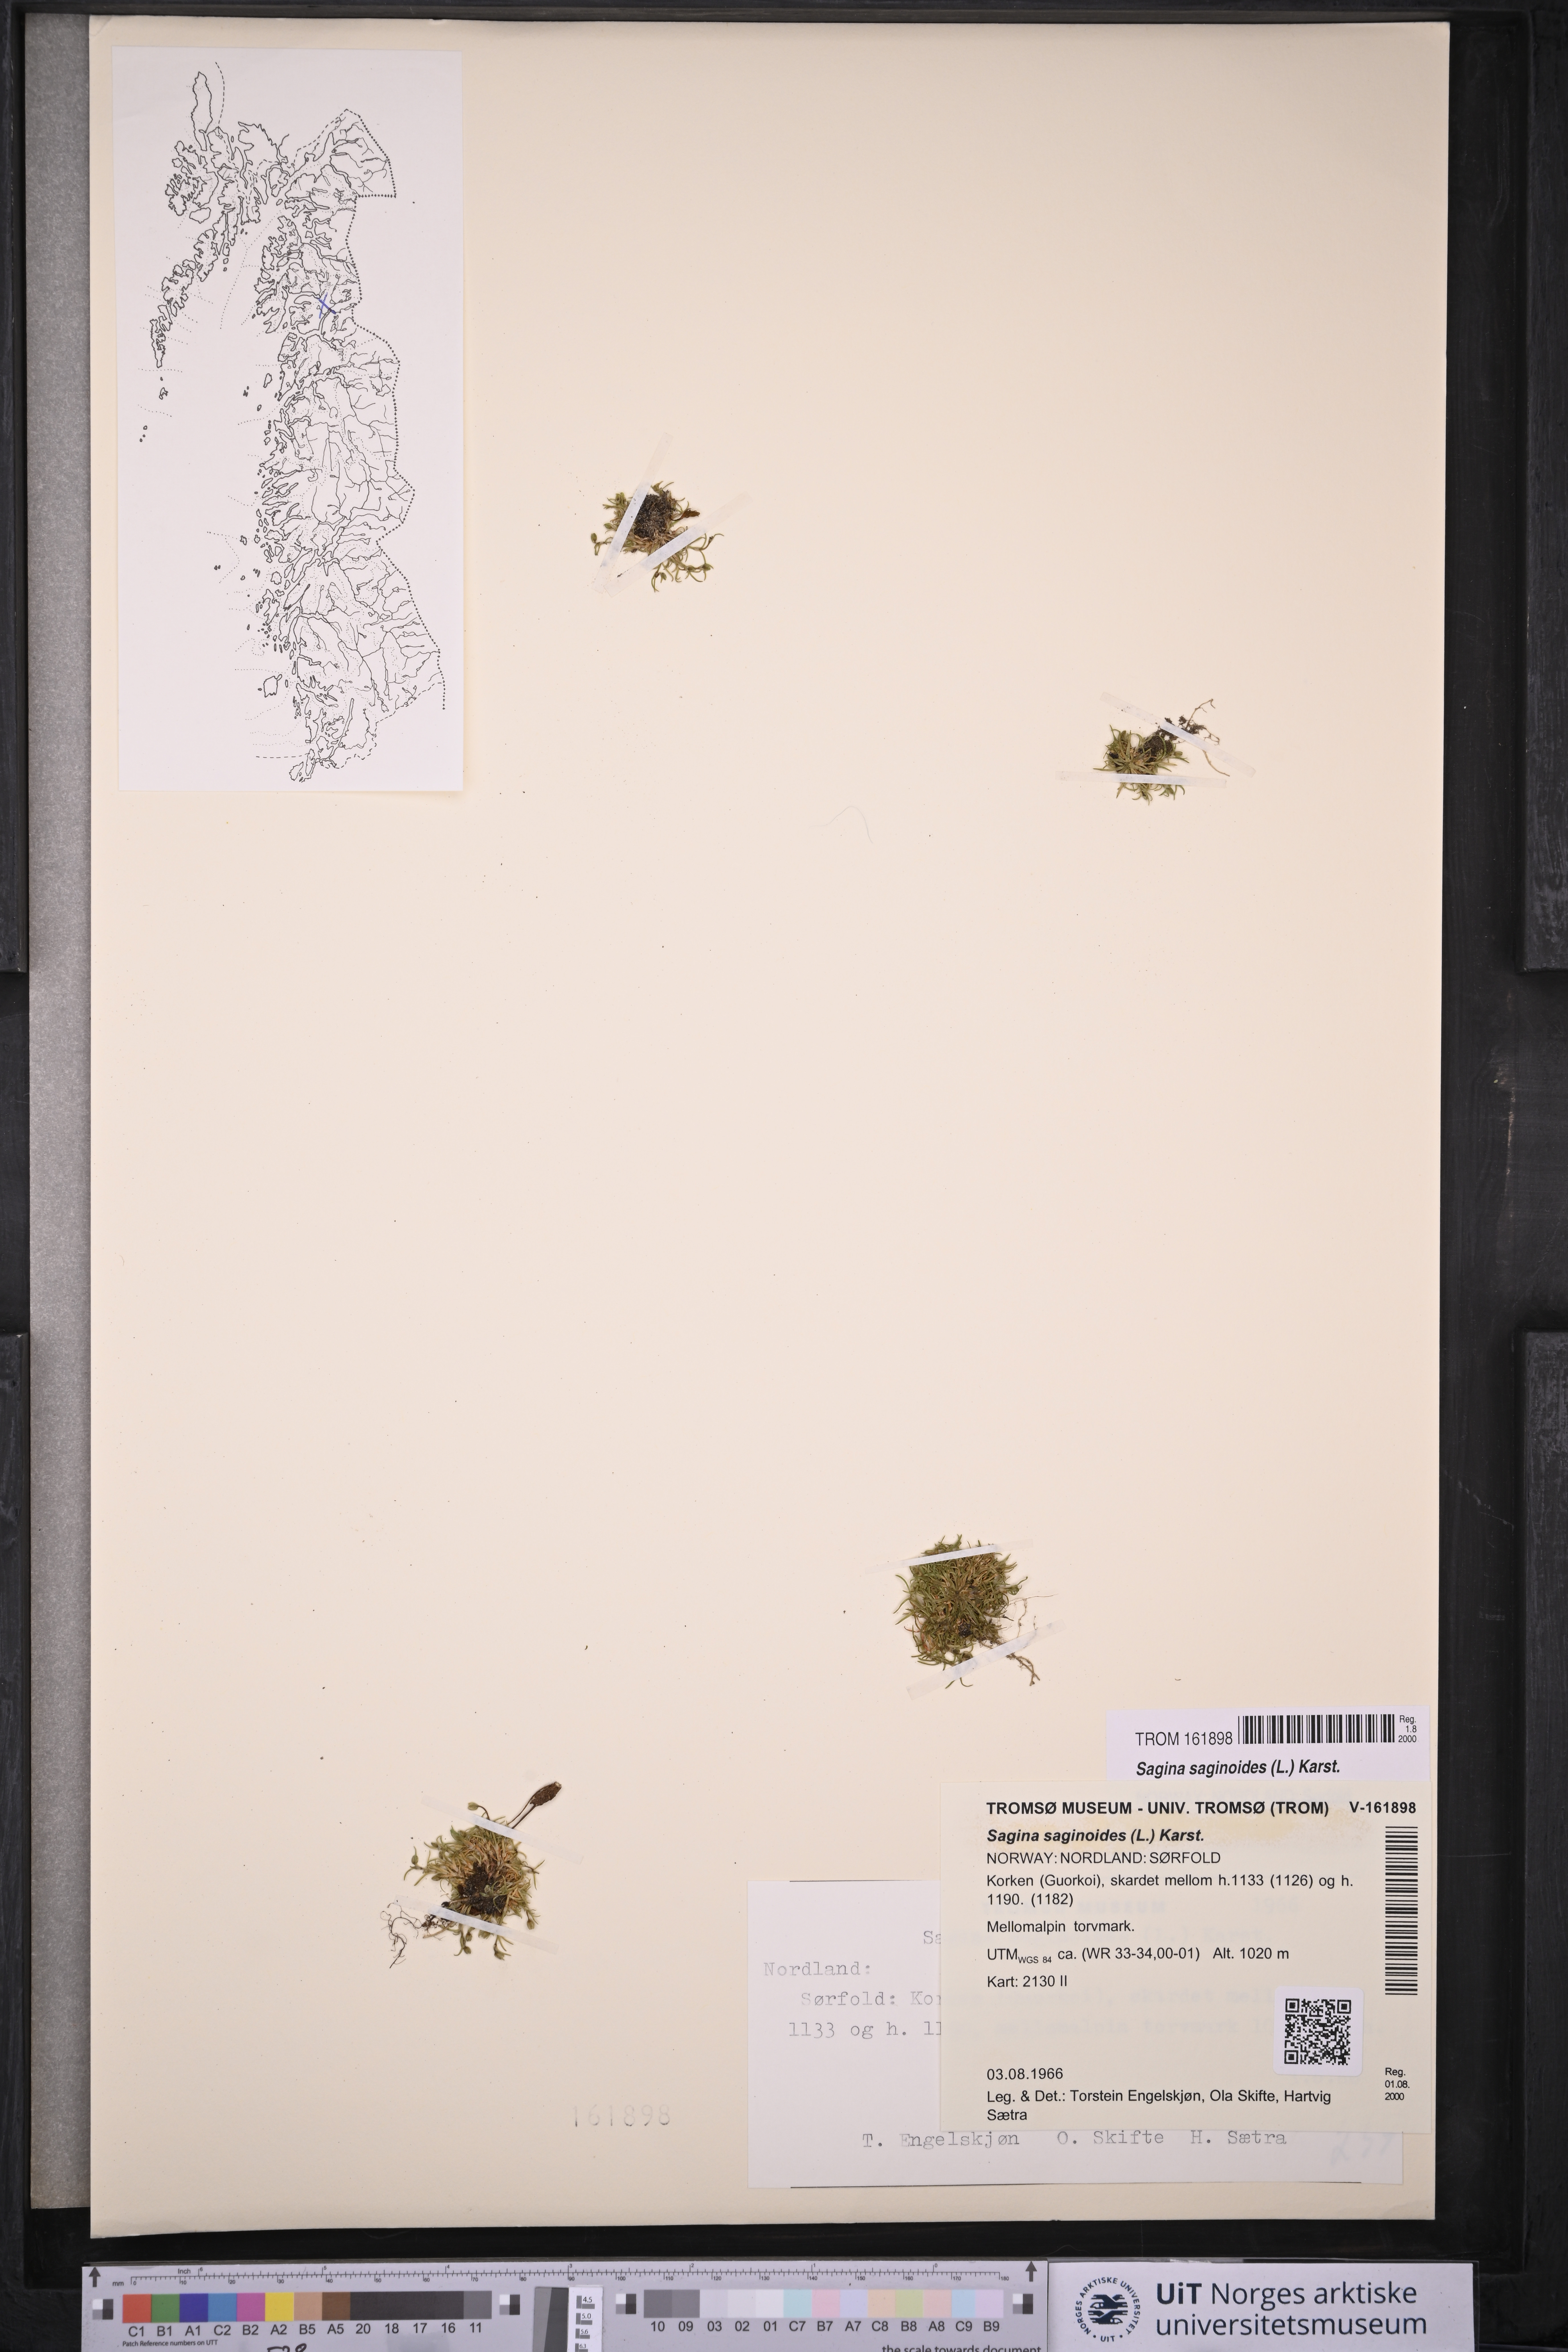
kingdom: Plantae
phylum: Tracheophyta
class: Magnoliopsida
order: Caryophyllales
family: Caryophyllaceae
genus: Sagina
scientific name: Sagina saginoides
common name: Alpine pearlwort
